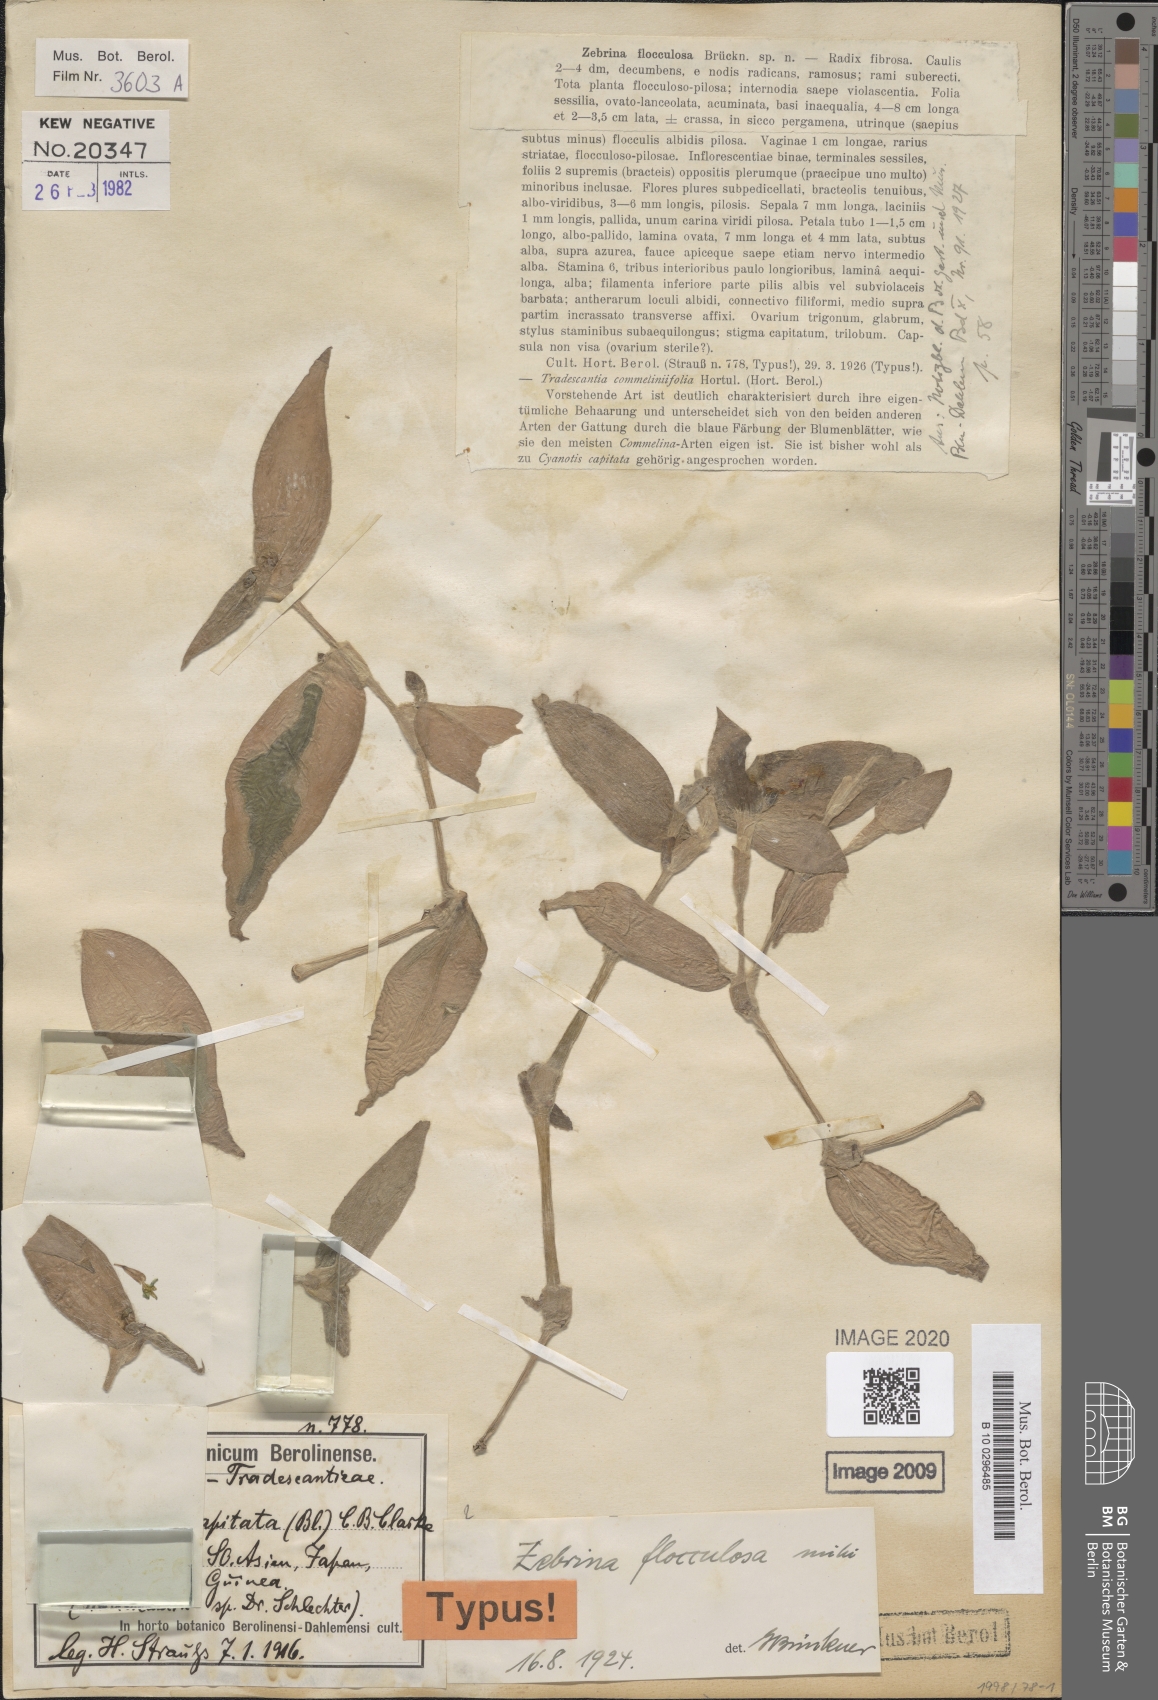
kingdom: Plantae
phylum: Tracheophyta
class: Liliopsida
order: Commelinales
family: Commelinaceae
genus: Tradescantia
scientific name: Tradescantia zebrina
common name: Inchplant
